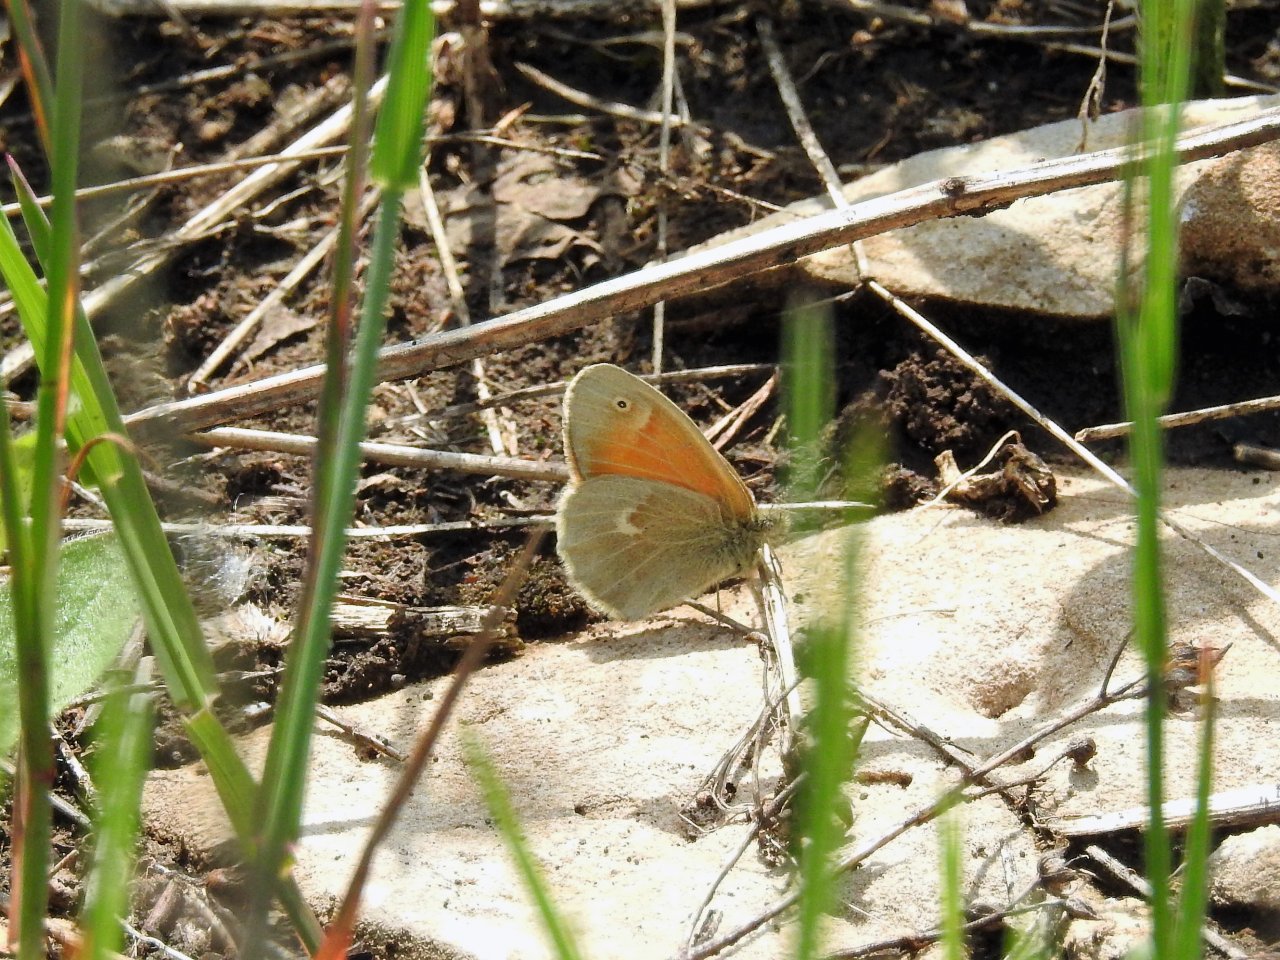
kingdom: Animalia
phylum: Arthropoda
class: Insecta
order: Lepidoptera
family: Nymphalidae
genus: Coenonympha
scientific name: Coenonympha tullia
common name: Large Heath
